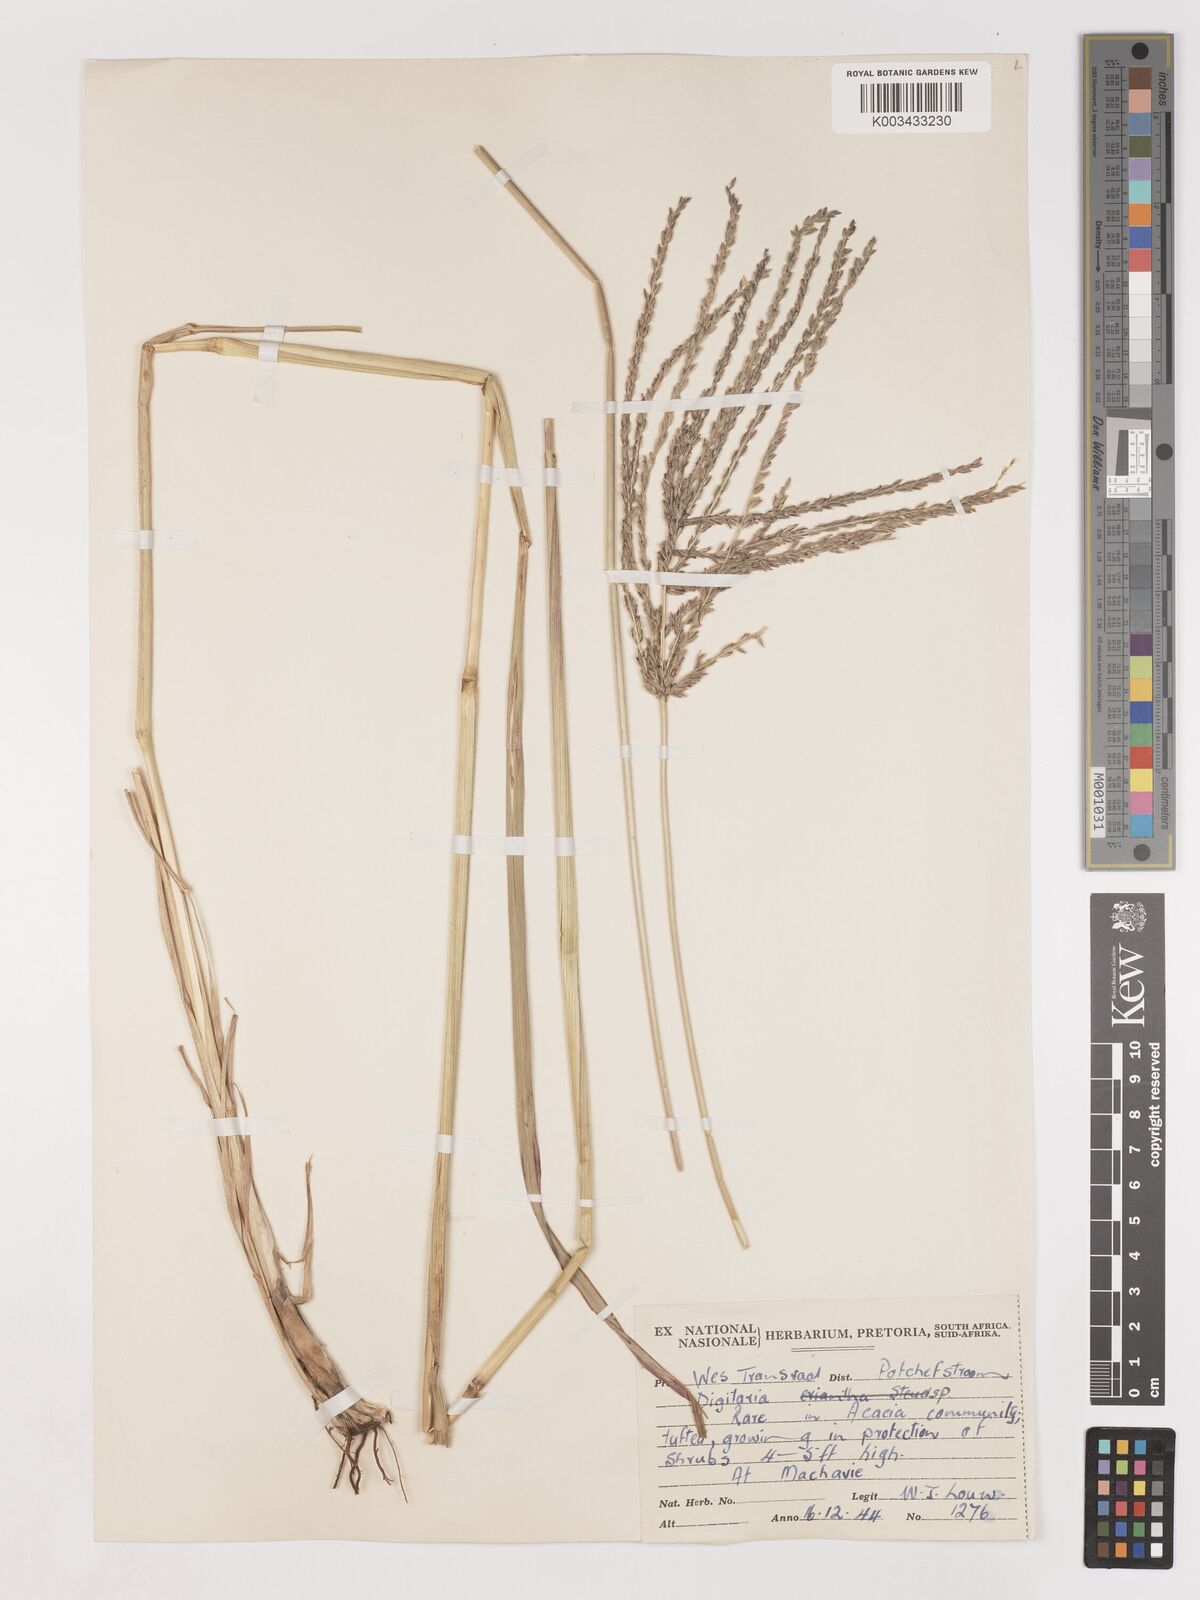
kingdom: Plantae
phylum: Tracheophyta
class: Liliopsida
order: Poales
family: Poaceae
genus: Digitaria
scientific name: Digitaria eriantha
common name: Digitgrass
